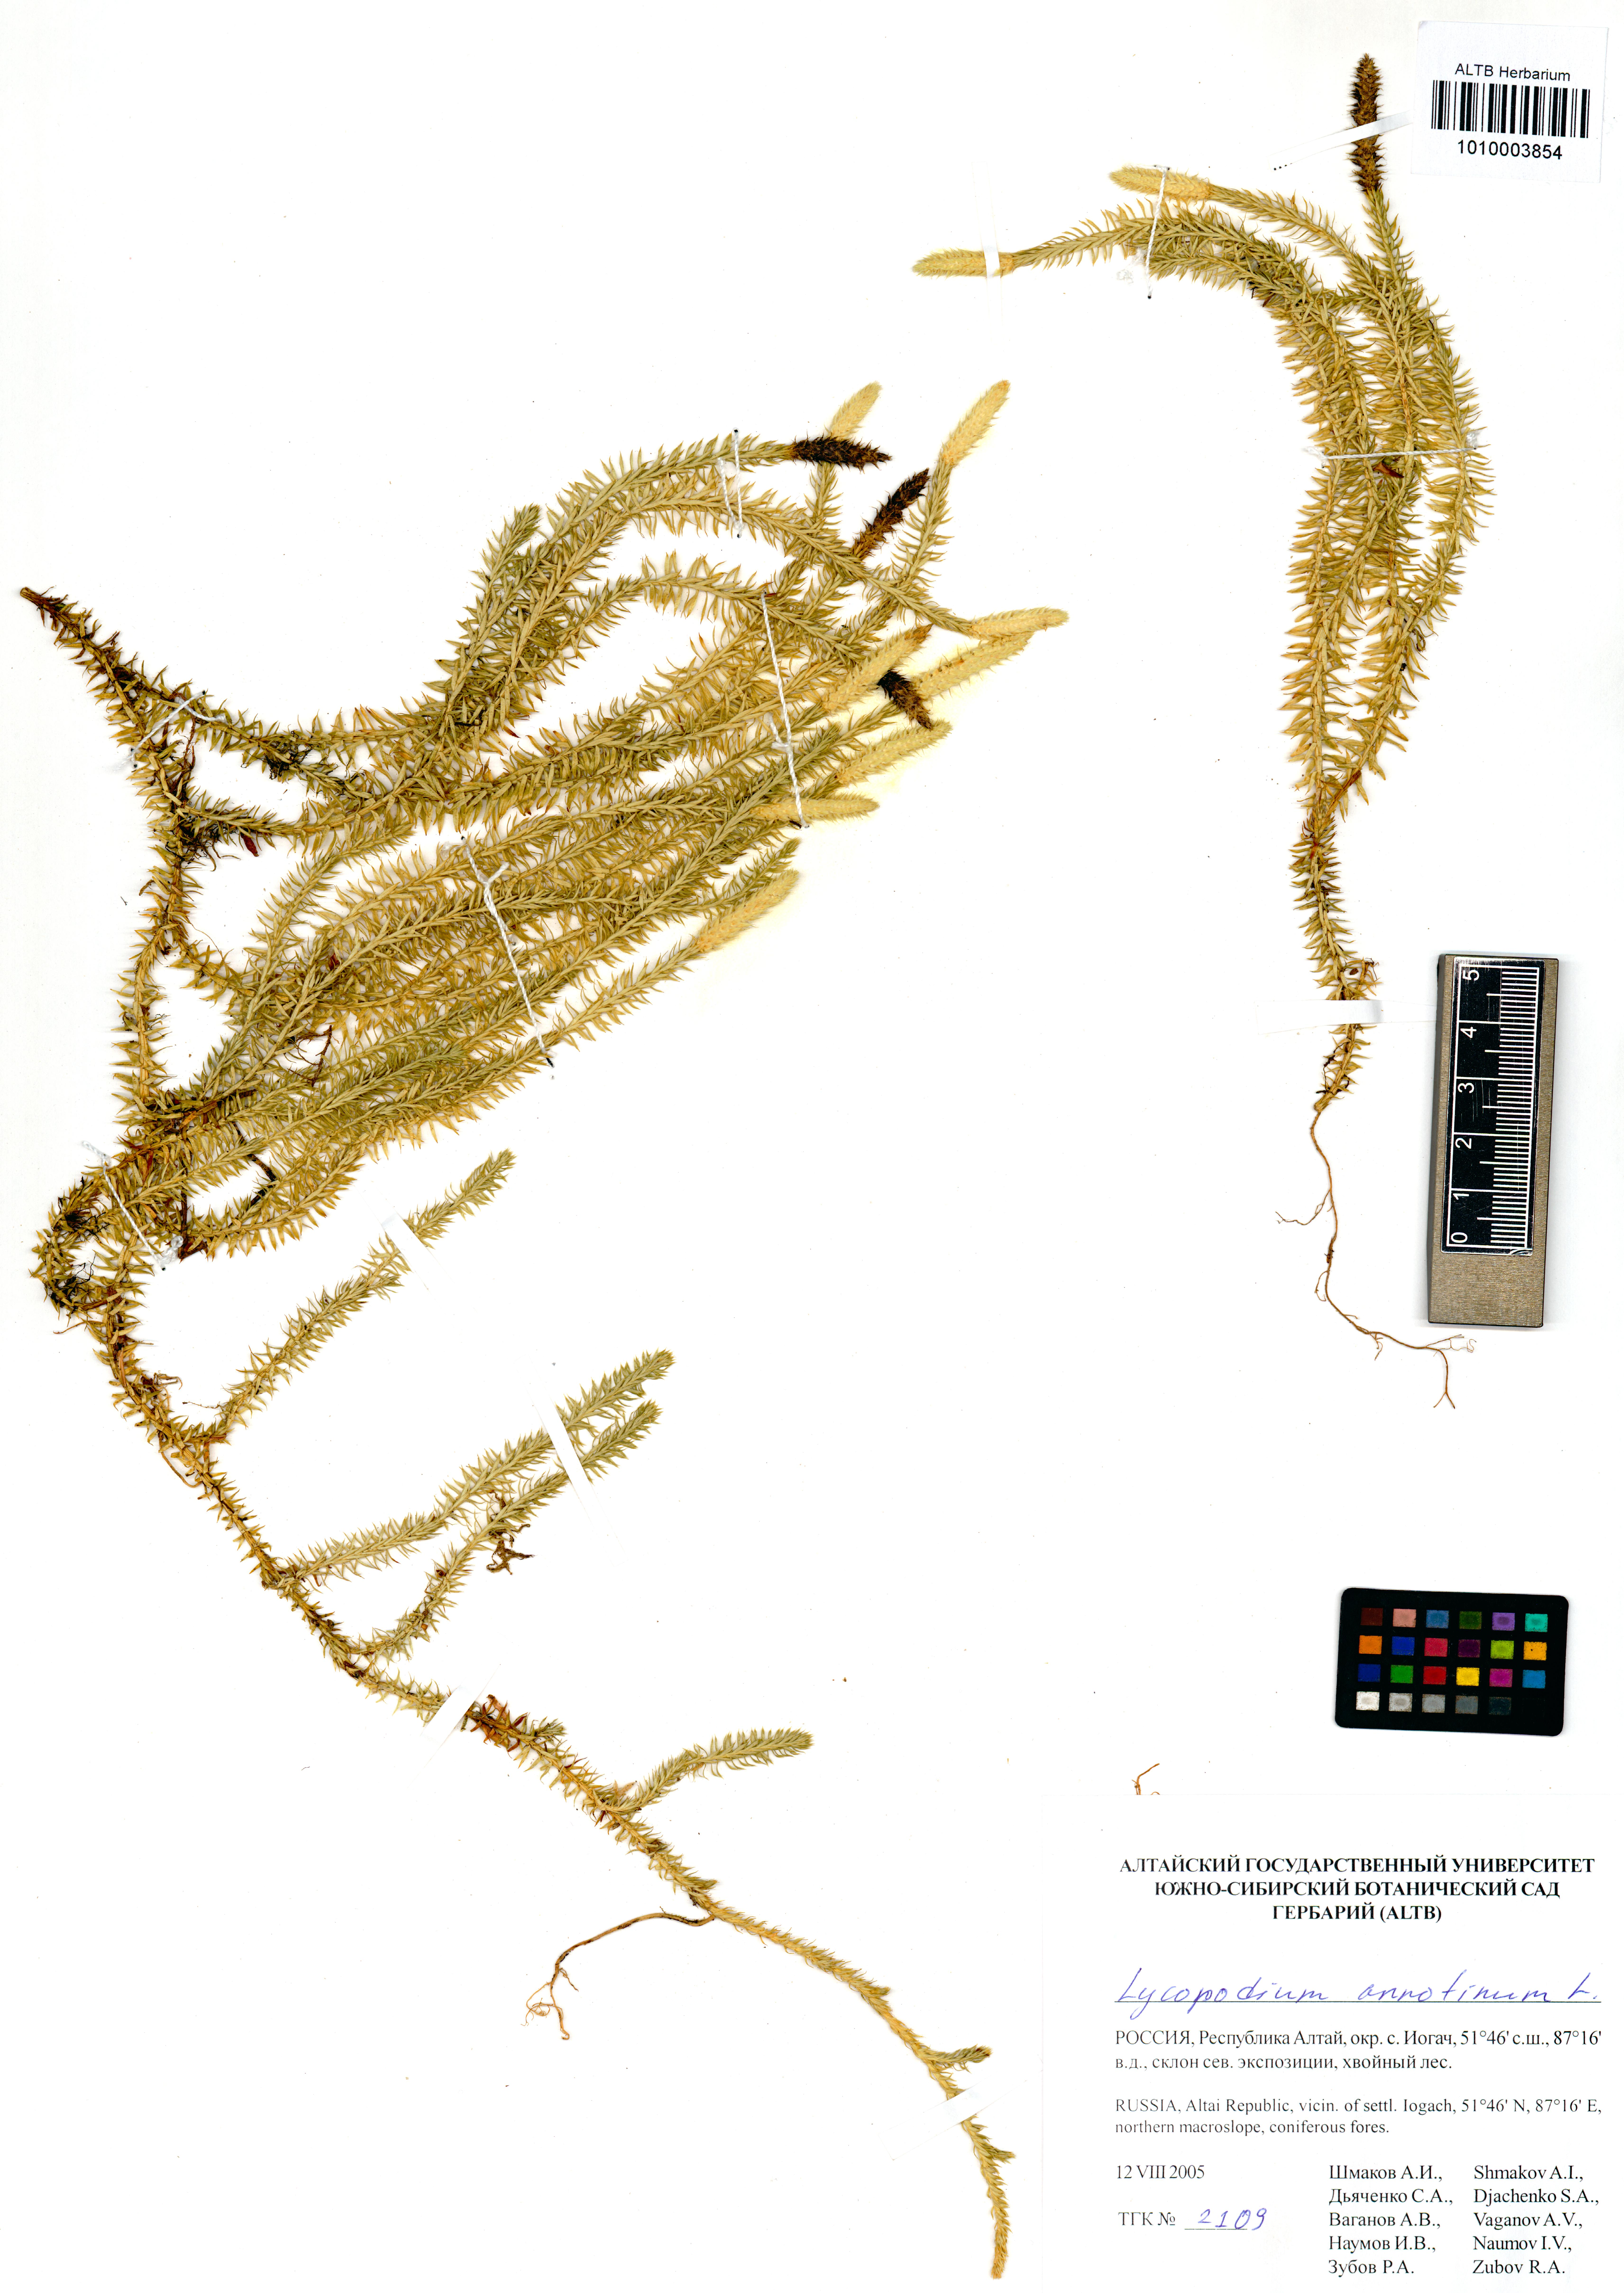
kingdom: Plantae
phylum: Tracheophyta
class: Lycopodiopsida
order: Lycopodiales
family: Lycopodiaceae
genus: Spinulum
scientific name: Spinulum annotinum
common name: Interrupted club-moss
